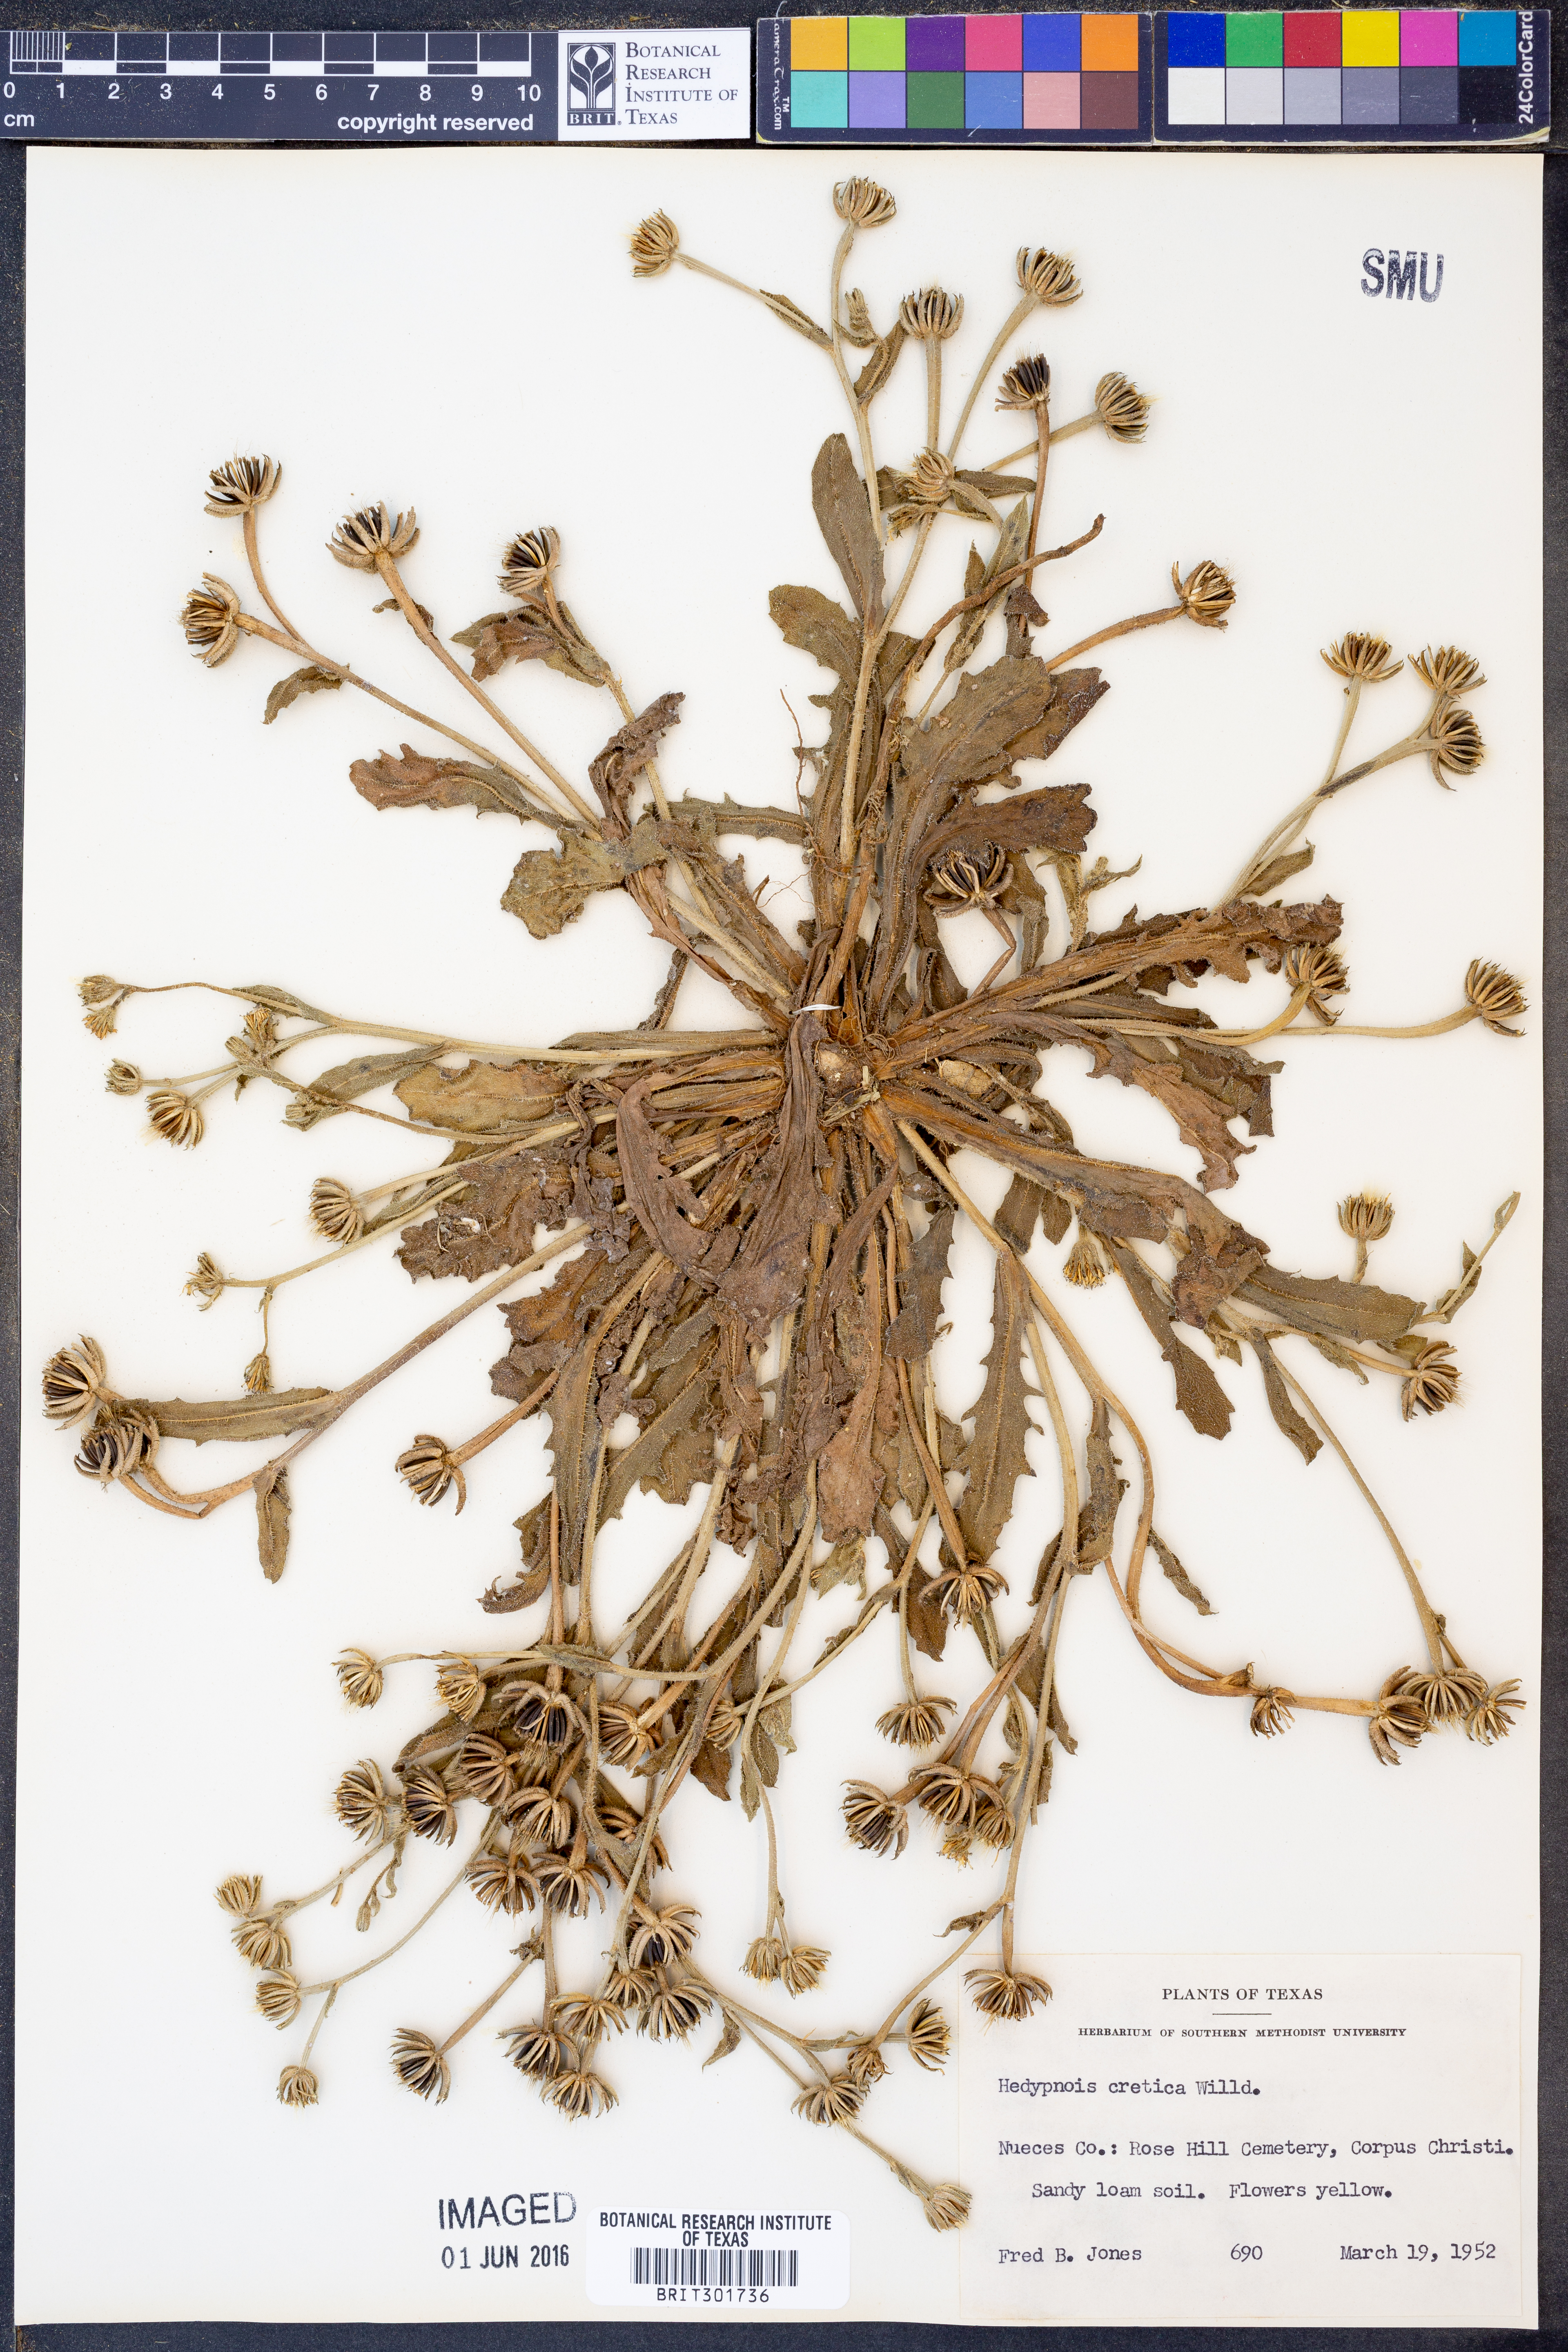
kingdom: Plantae
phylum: Tracheophyta
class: Magnoliopsida
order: Asterales
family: Asteraceae
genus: Hedypnois
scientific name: Hedypnois cretica
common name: Scaly hawkbit
